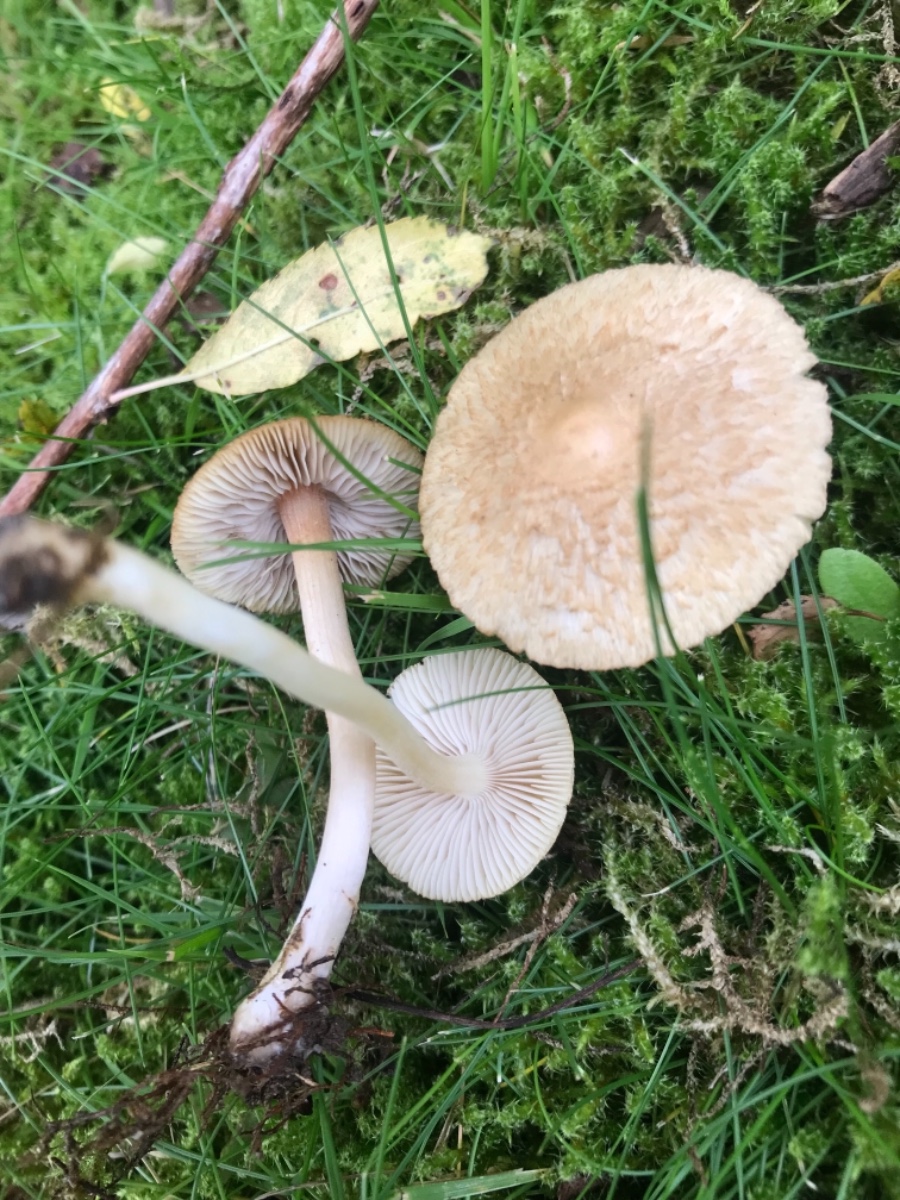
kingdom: Fungi
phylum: Basidiomycota
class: Agaricomycetes
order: Agaricales
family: Inocybaceae
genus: Inocybe
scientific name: Inocybe
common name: trævlhat
